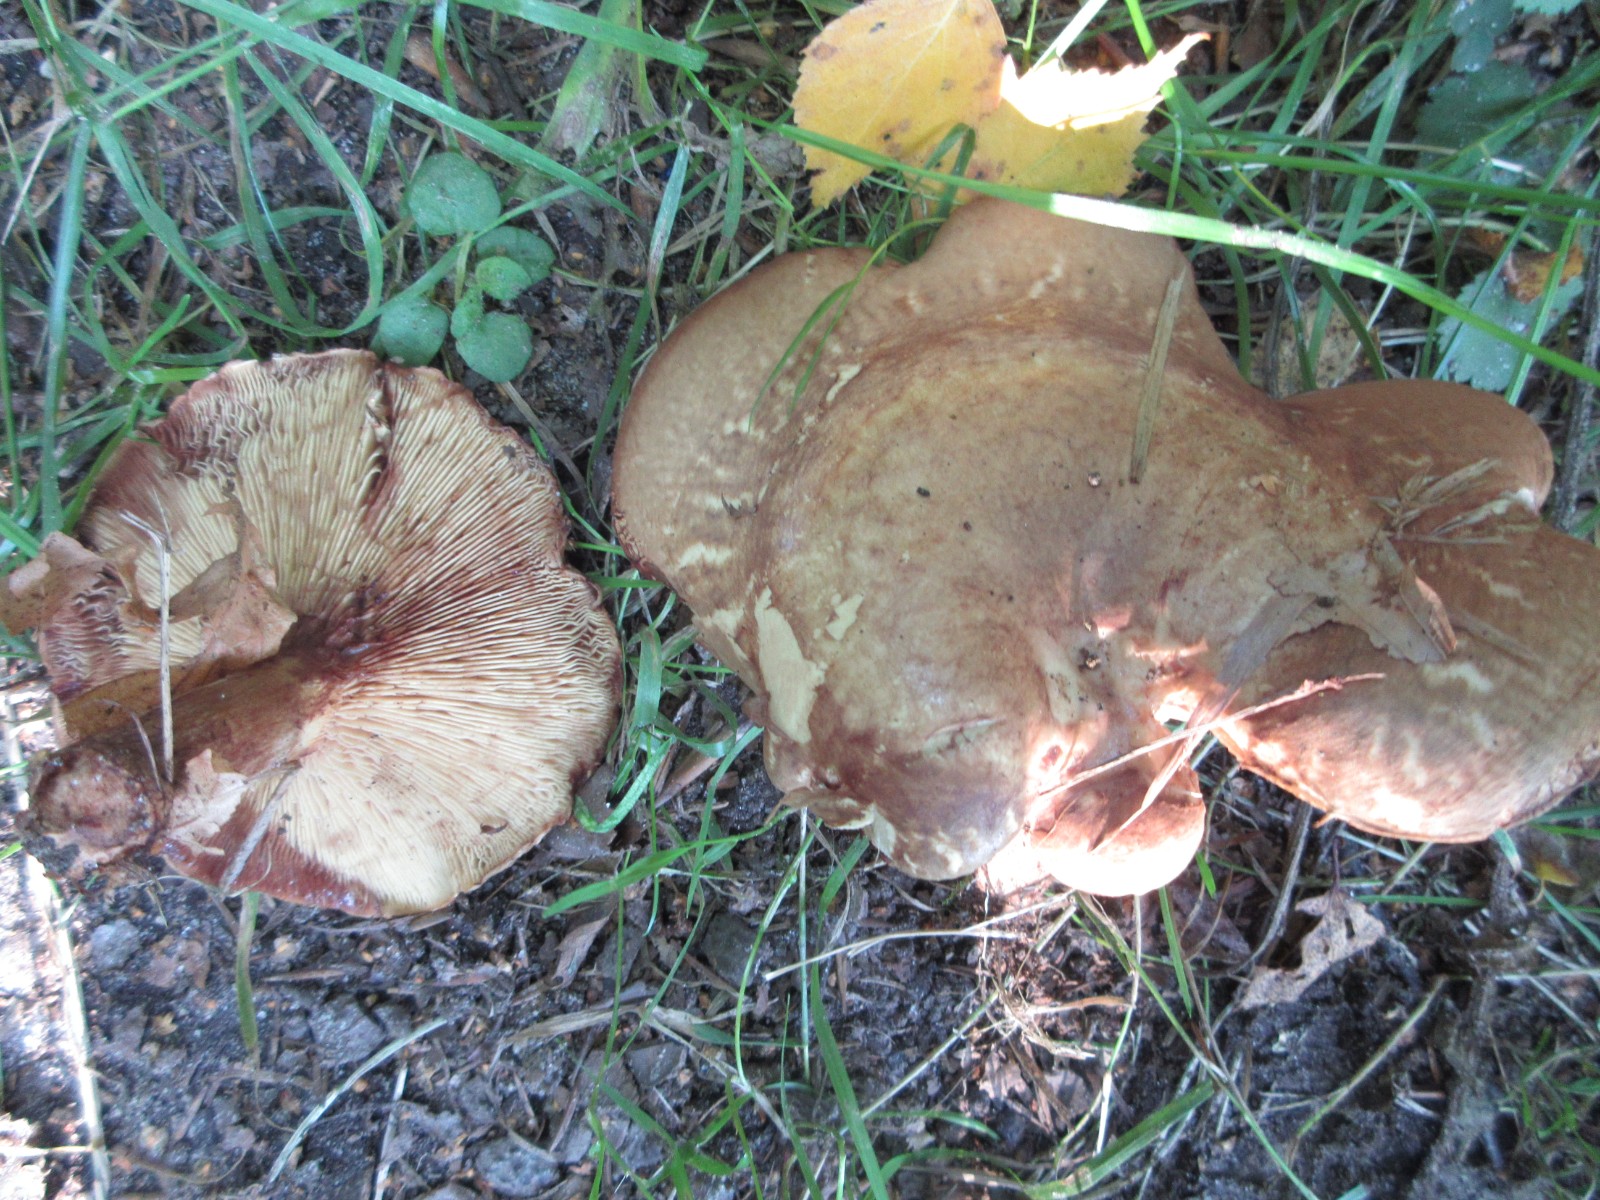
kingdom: Fungi
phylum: Basidiomycota
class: Agaricomycetes
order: Boletales
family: Paxillaceae
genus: Paxillus
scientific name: Paxillus involutus
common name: almindelig netbladhat
